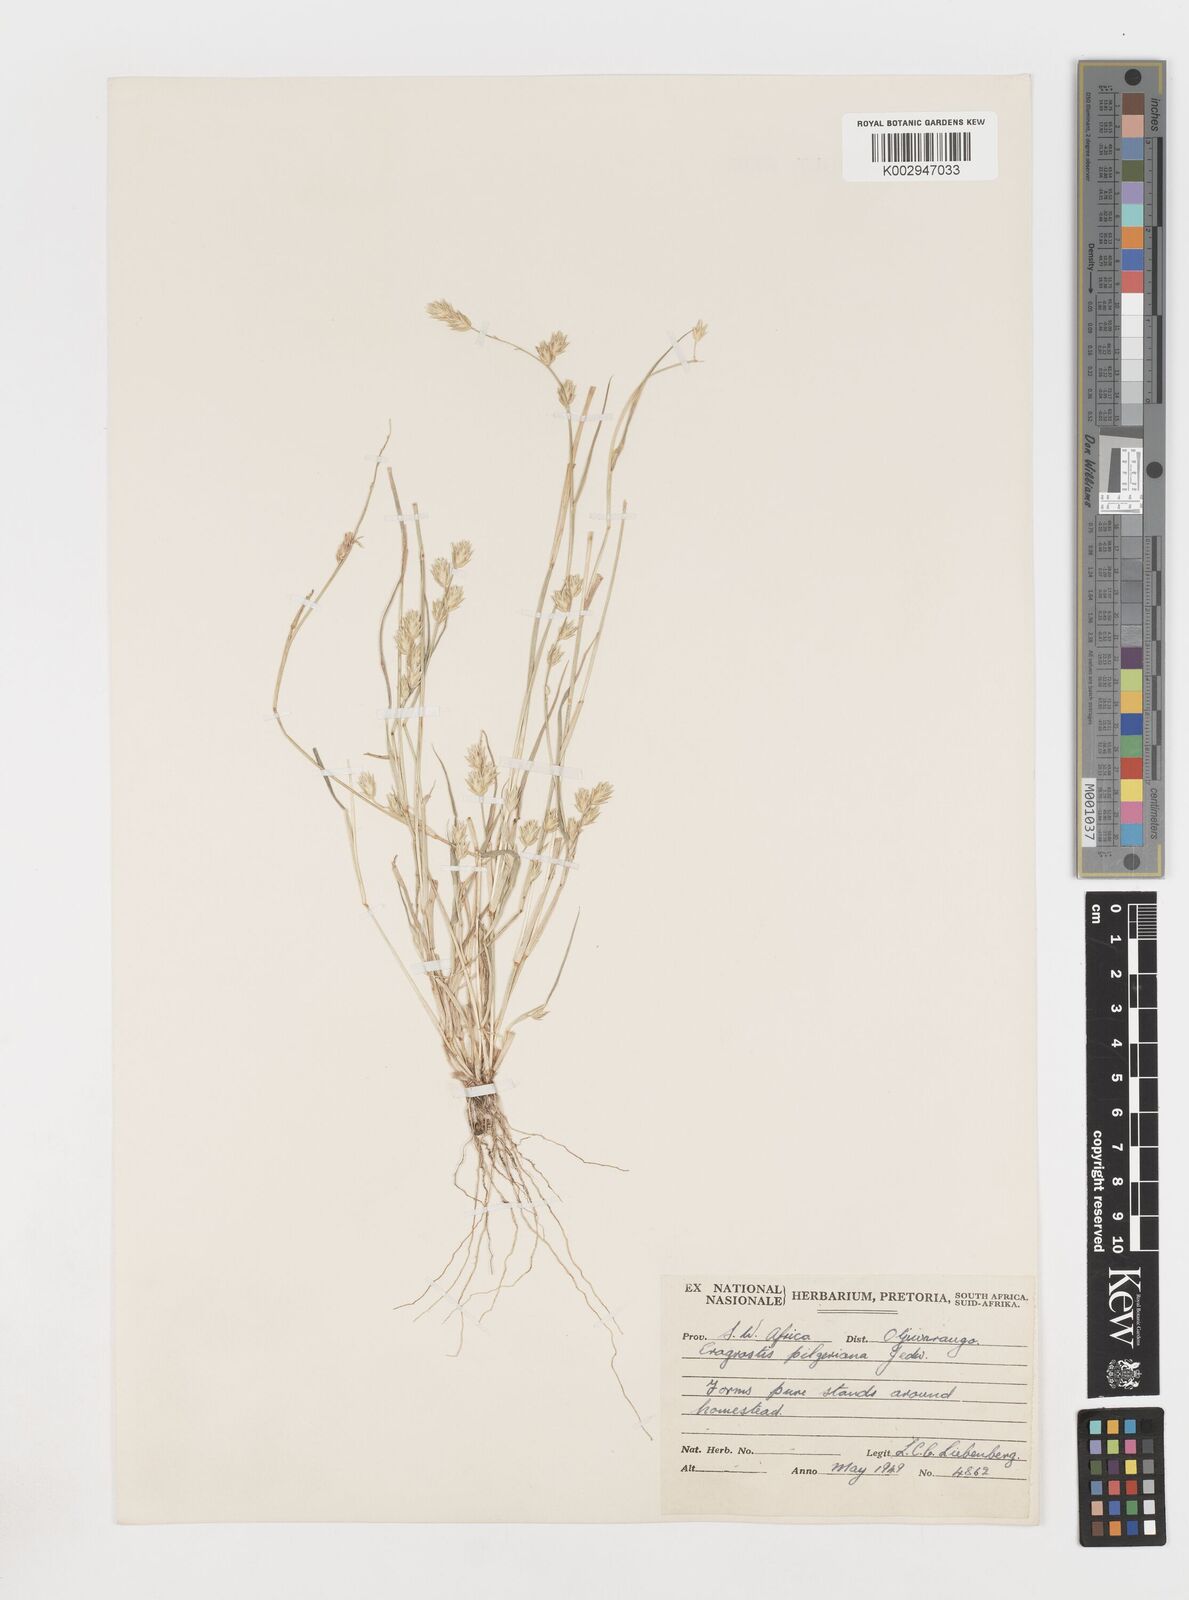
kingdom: Plantae
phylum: Tracheophyta
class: Liliopsida
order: Poales
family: Poaceae
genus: Eragrostis
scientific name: Eragrostis pilgeriana
